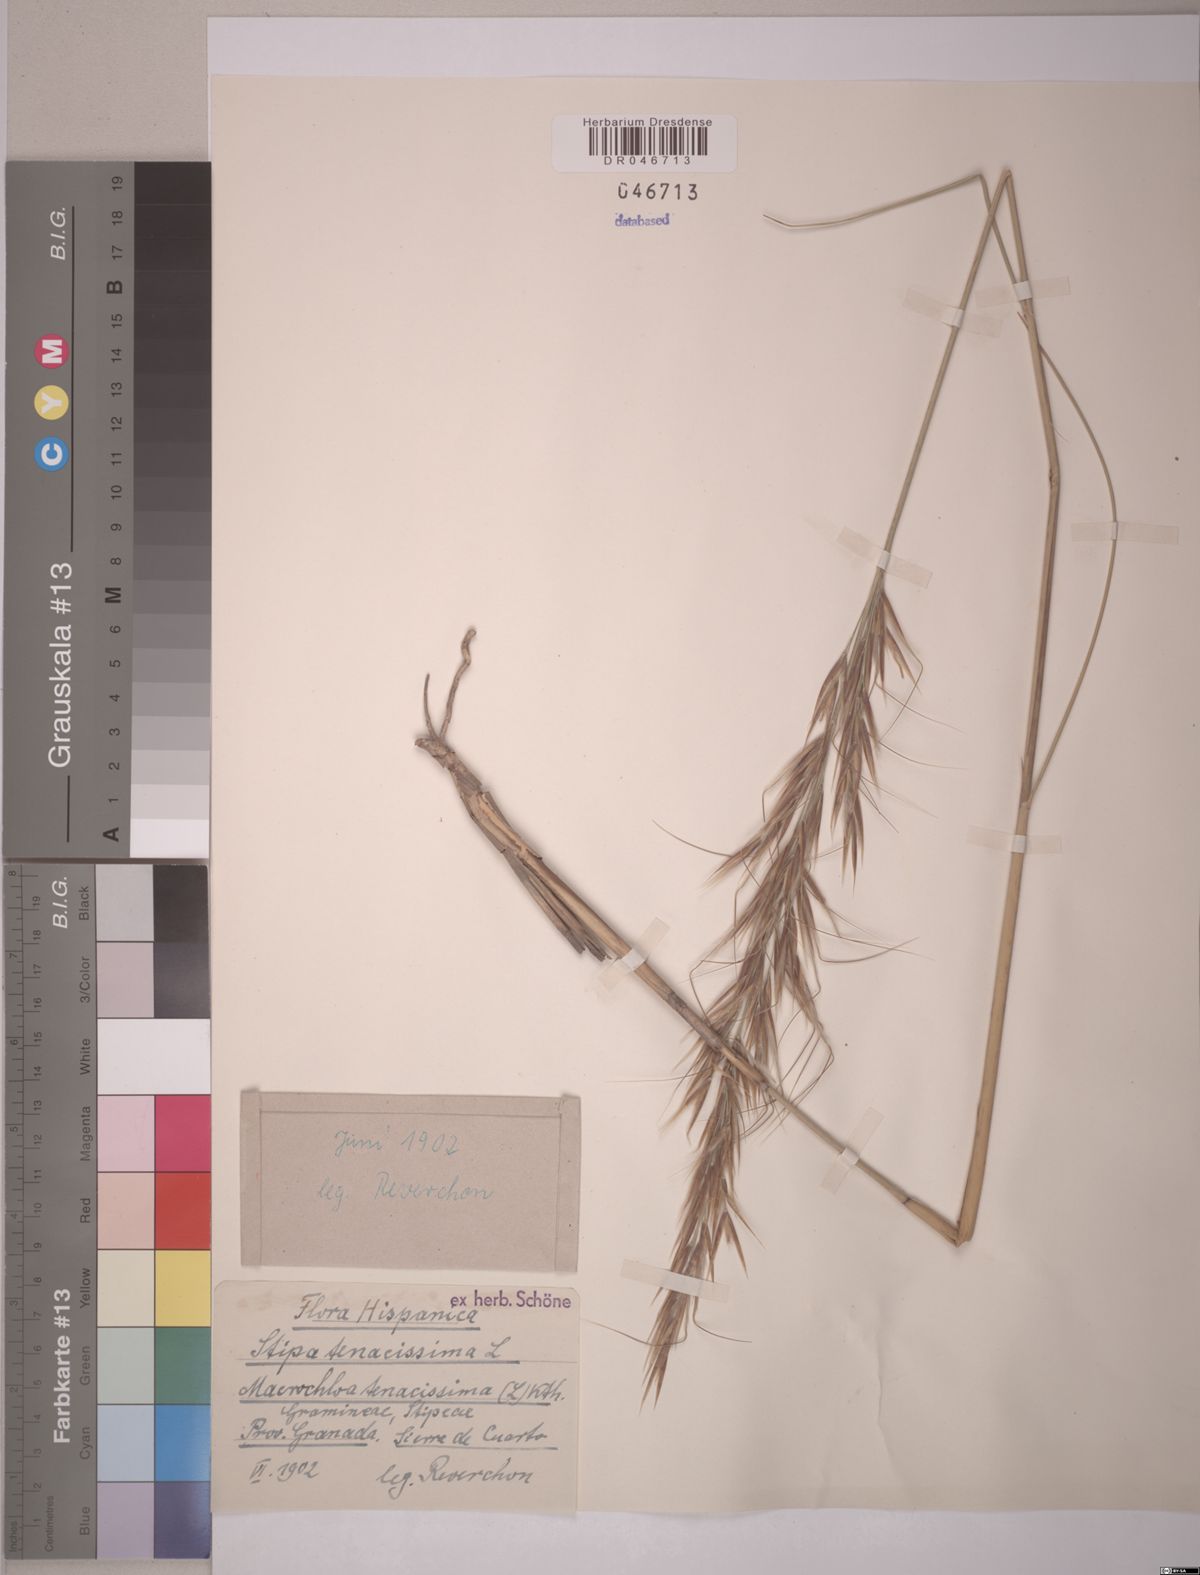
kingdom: Plantae
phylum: Tracheophyta
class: Liliopsida
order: Poales
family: Poaceae
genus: Macrochloa
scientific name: Macrochloa tenacissima
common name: Alfa grass
